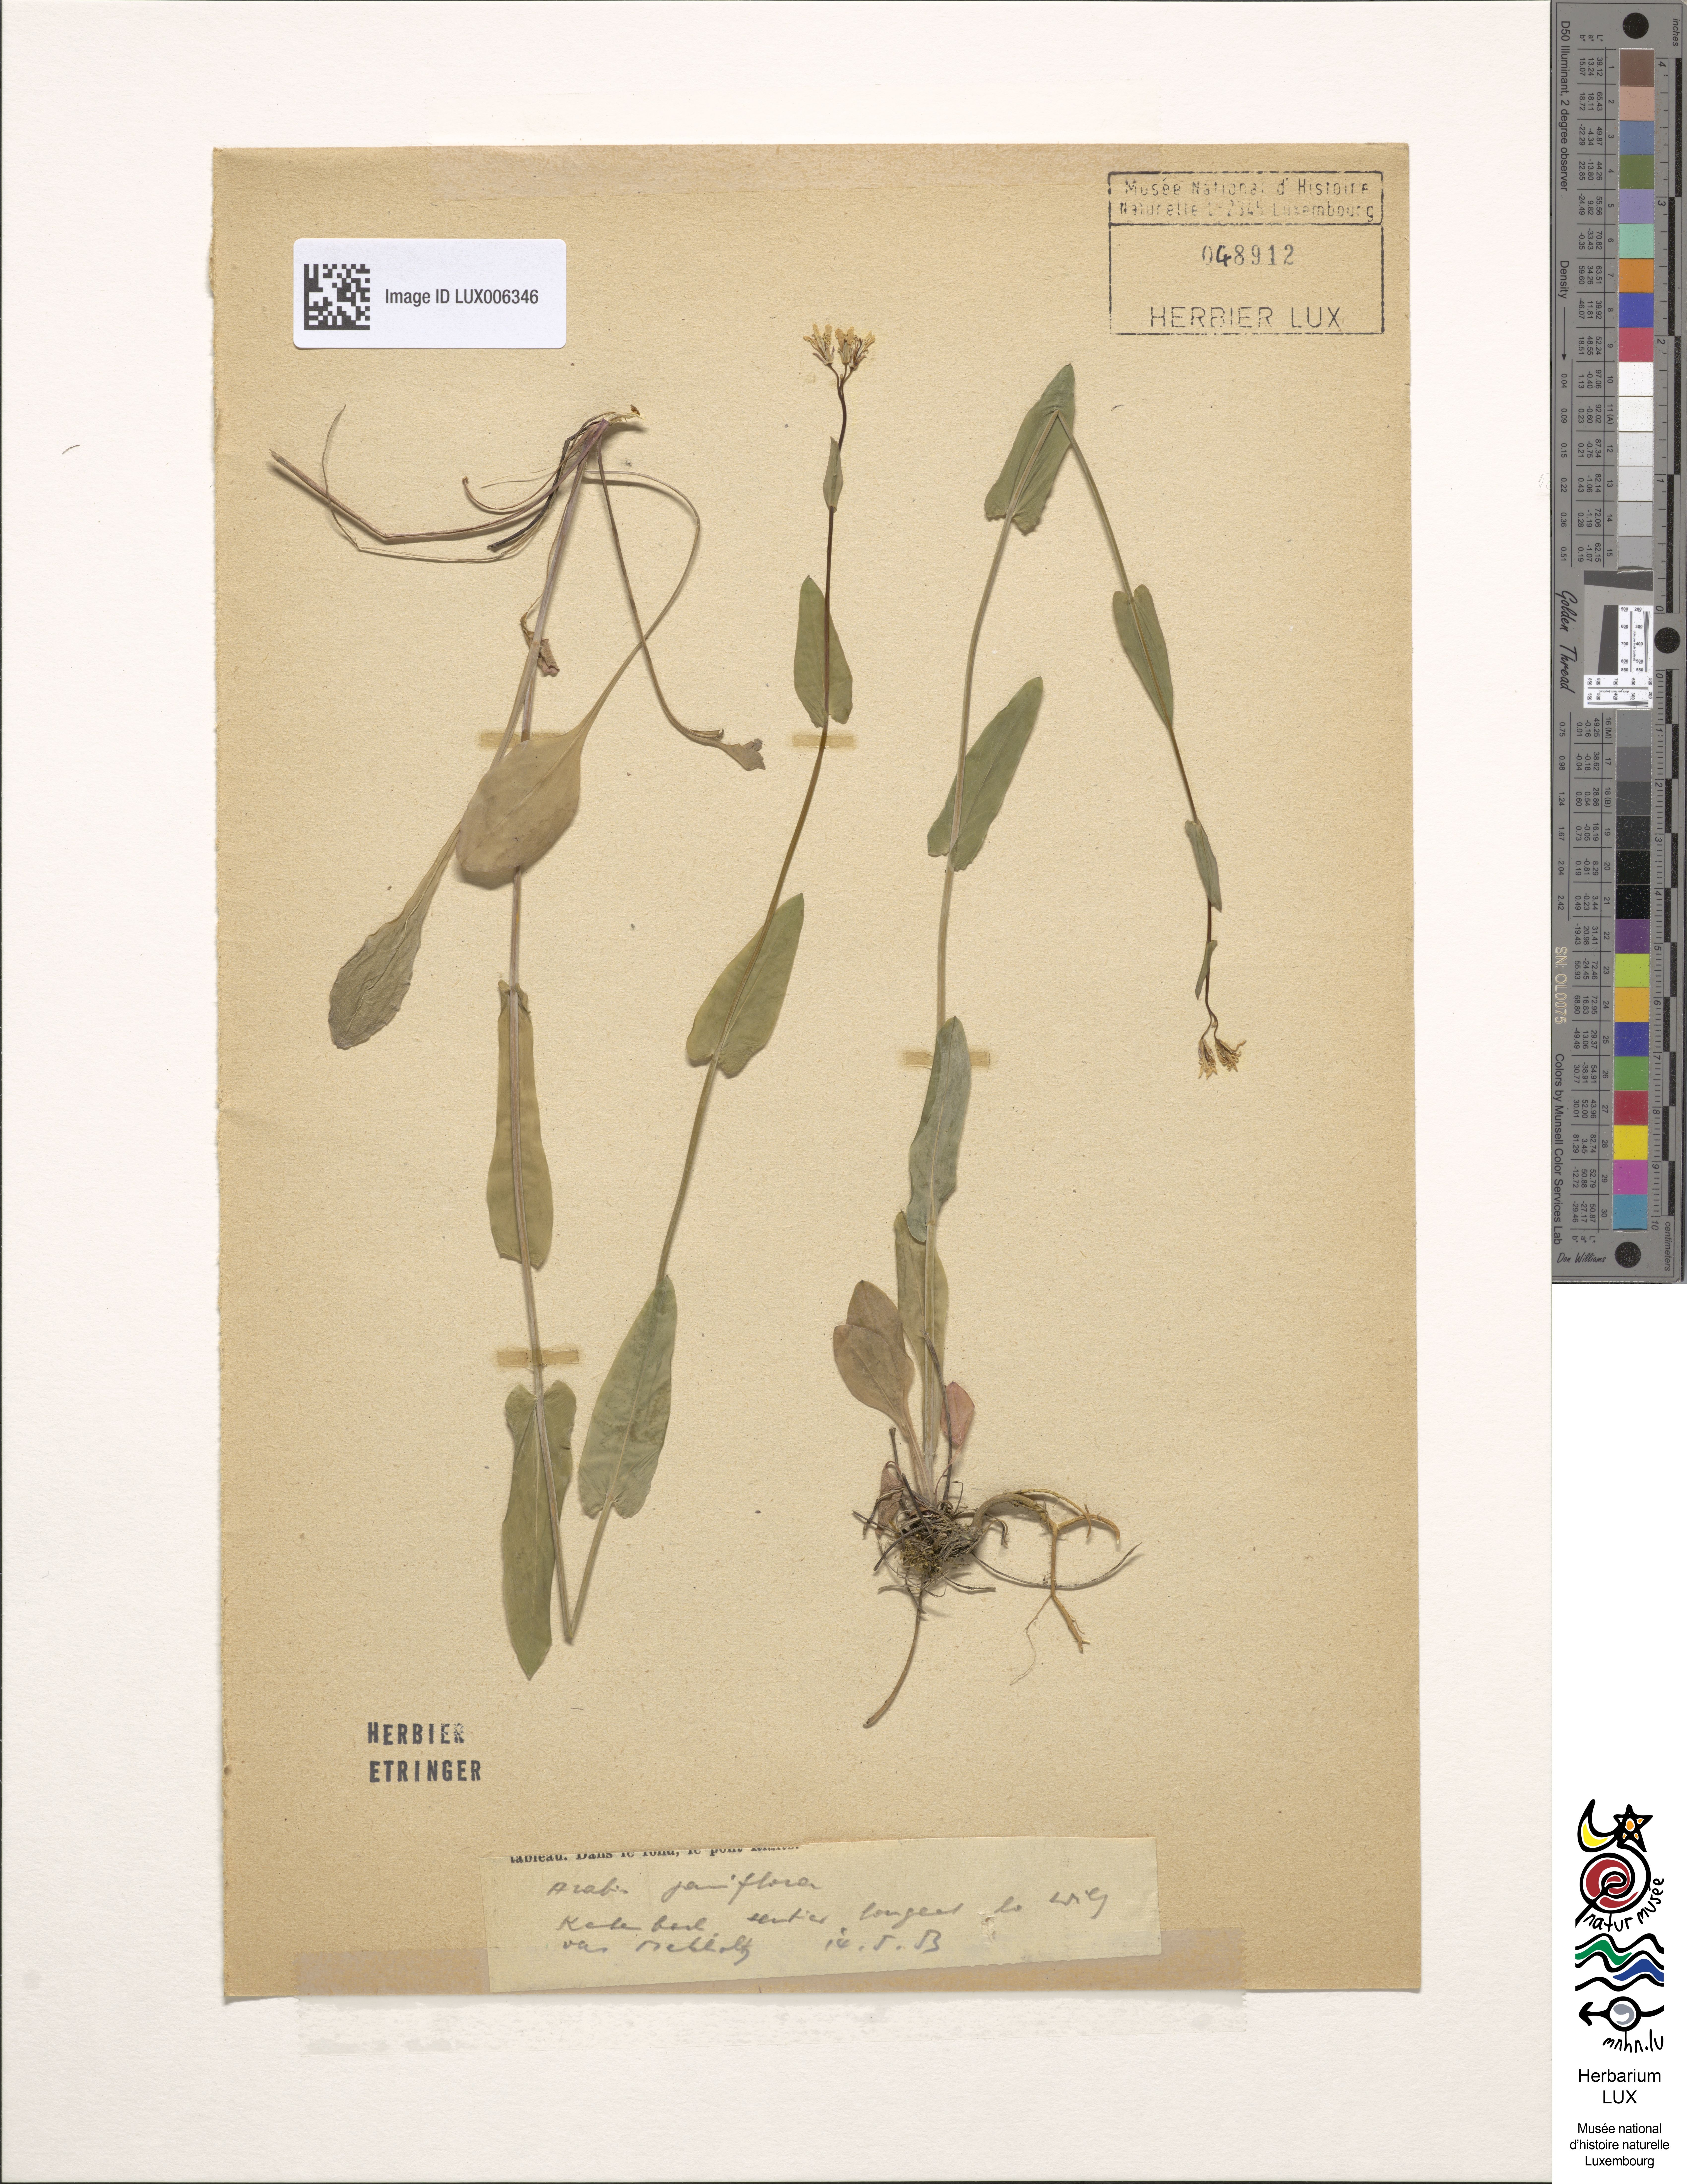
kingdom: Plantae
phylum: Tracheophyta
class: Magnoliopsida
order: Brassicales
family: Brassicaceae
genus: Fourraea
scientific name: Fourraea alpina
